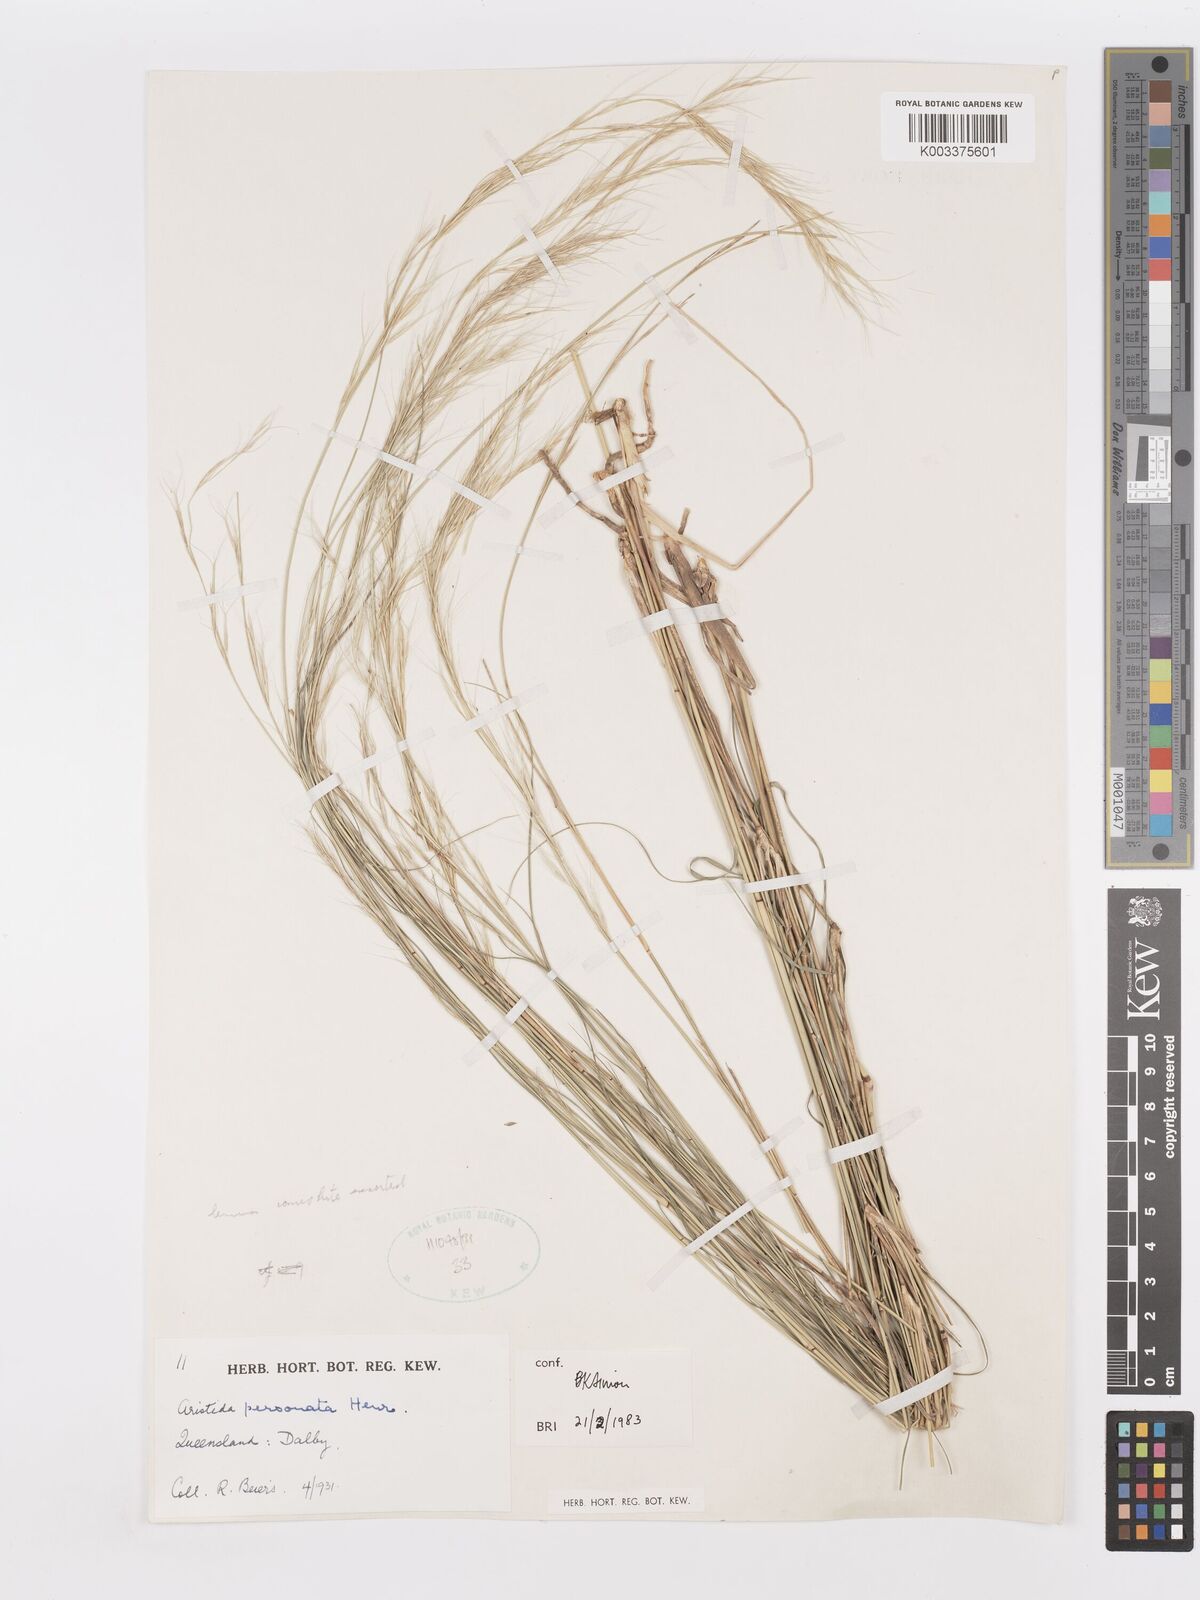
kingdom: Plantae
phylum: Tracheophyta
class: Liliopsida
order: Poales
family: Poaceae
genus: Aristida
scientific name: Aristida personata
